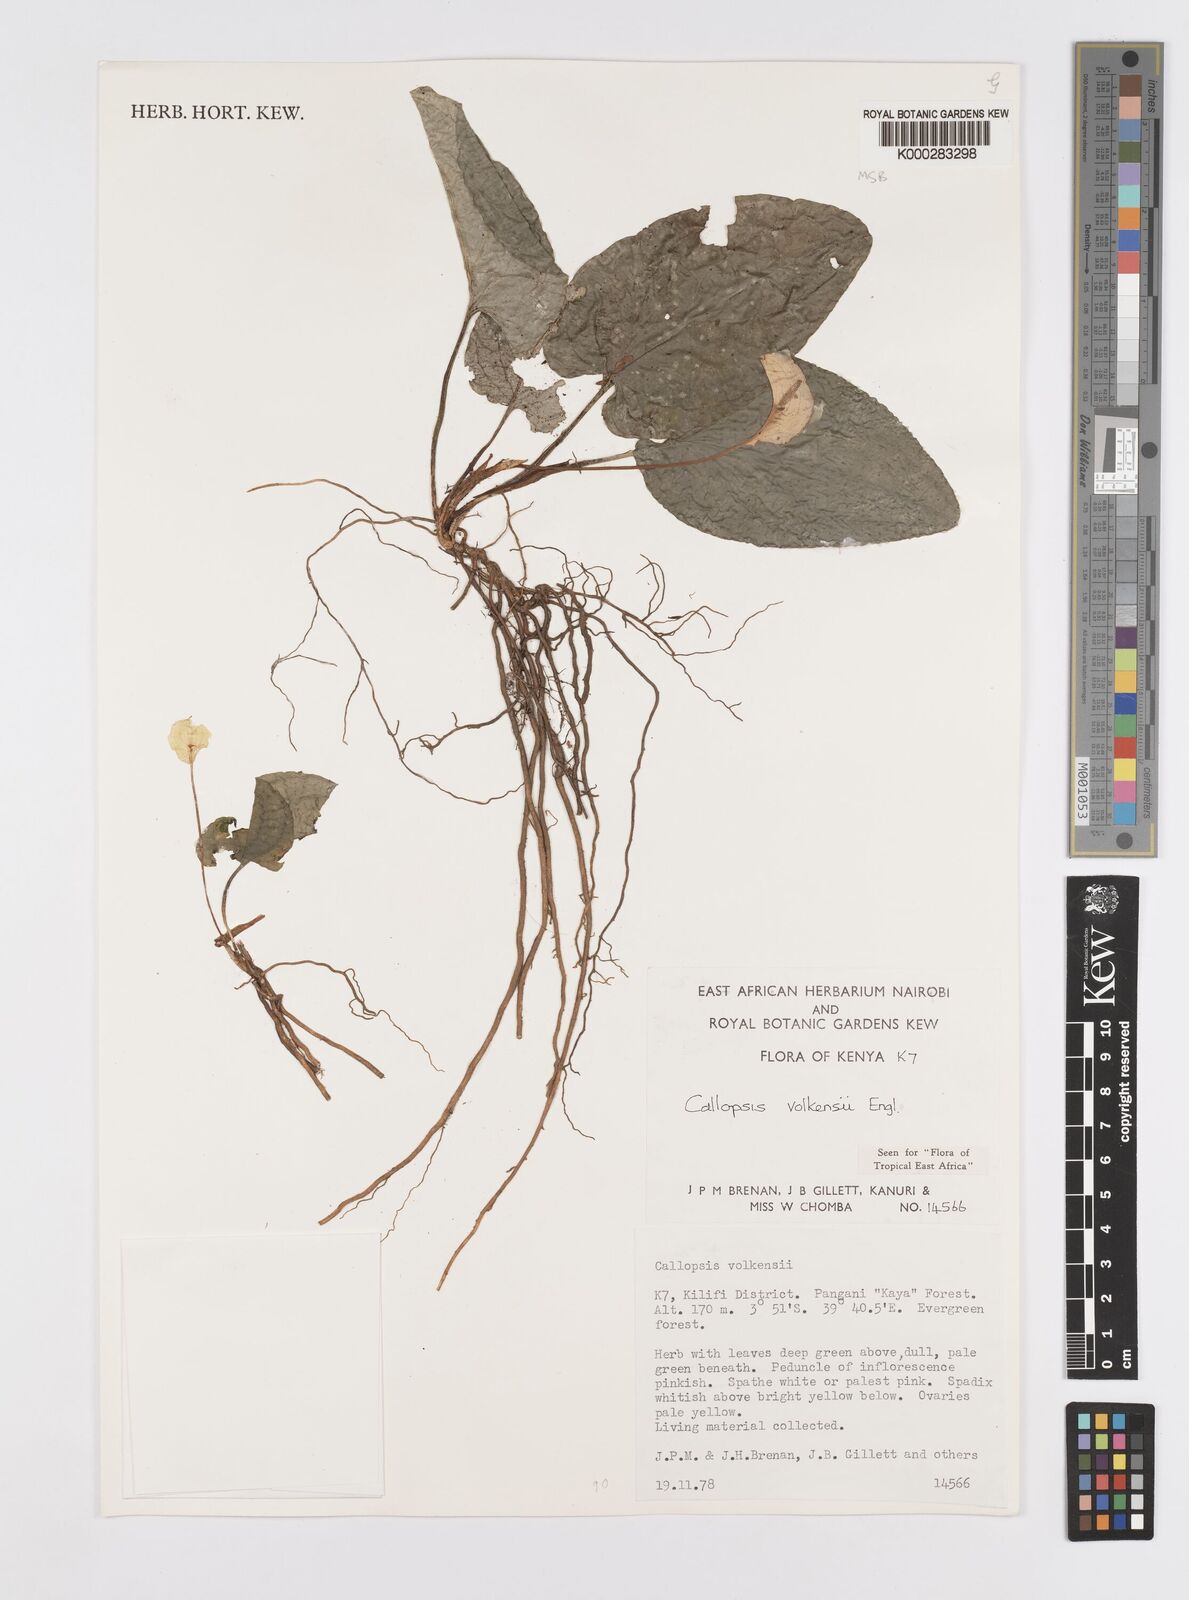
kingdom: Plantae
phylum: Tracheophyta
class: Liliopsida
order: Alismatales
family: Araceae
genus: Callopsis
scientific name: Callopsis volkensii
